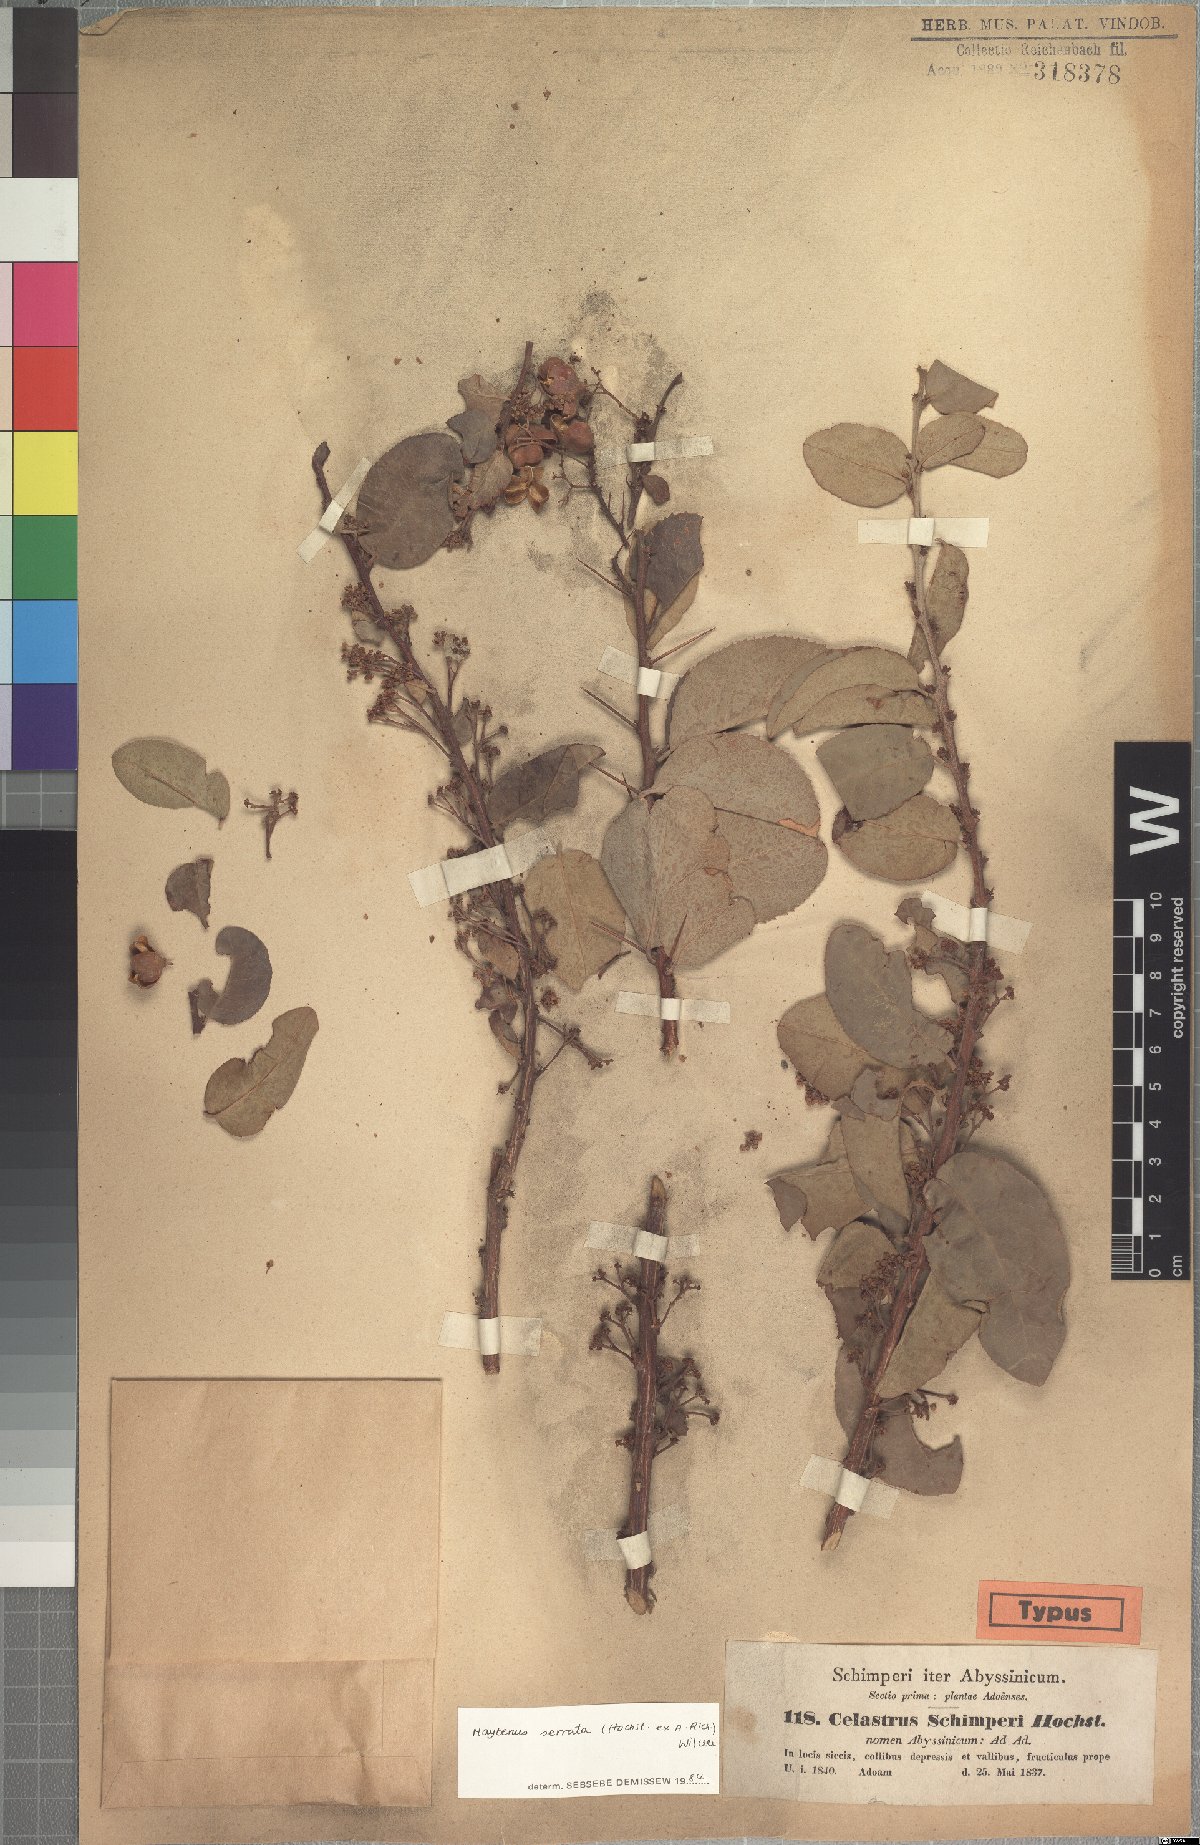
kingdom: Plantae
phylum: Tracheophyta
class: Magnoliopsida
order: Celastrales
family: Celastraceae
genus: Gymnosporia
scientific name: Gymnosporia serrata
